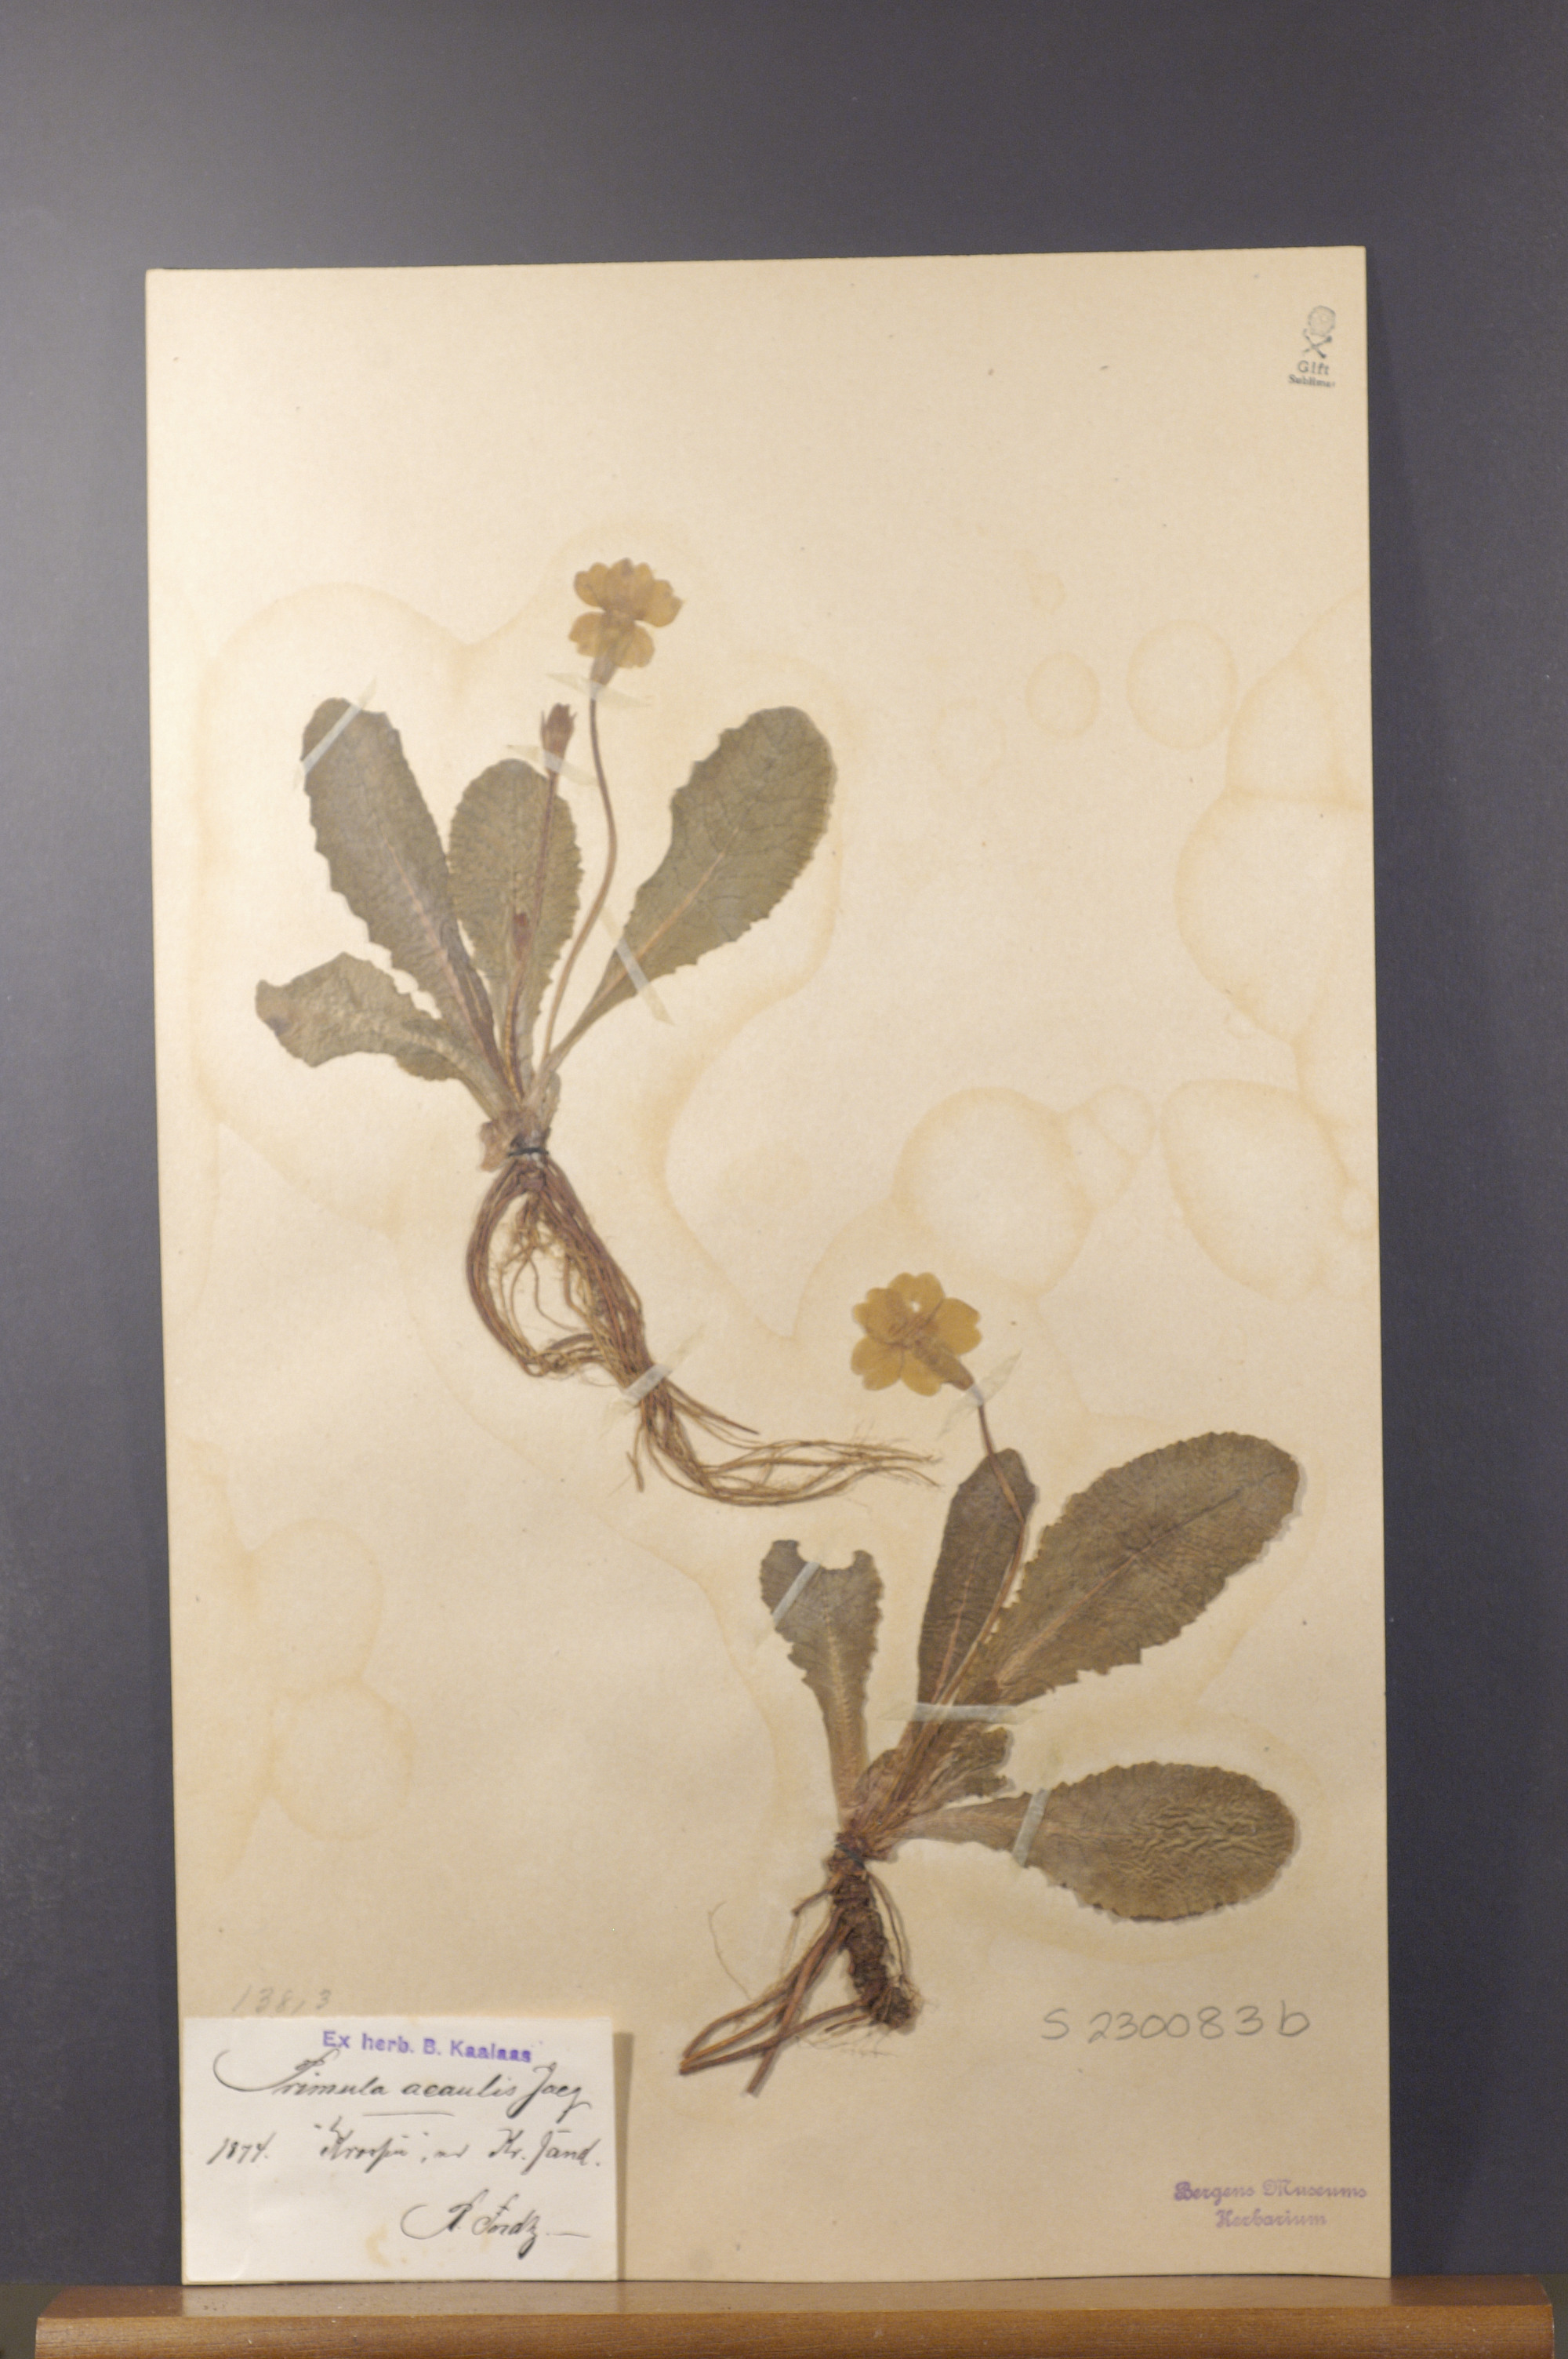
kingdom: Plantae
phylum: Tracheophyta
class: Magnoliopsida
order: Ericales
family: Primulaceae
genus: Primula
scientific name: Primula vulgaris
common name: Primrose
